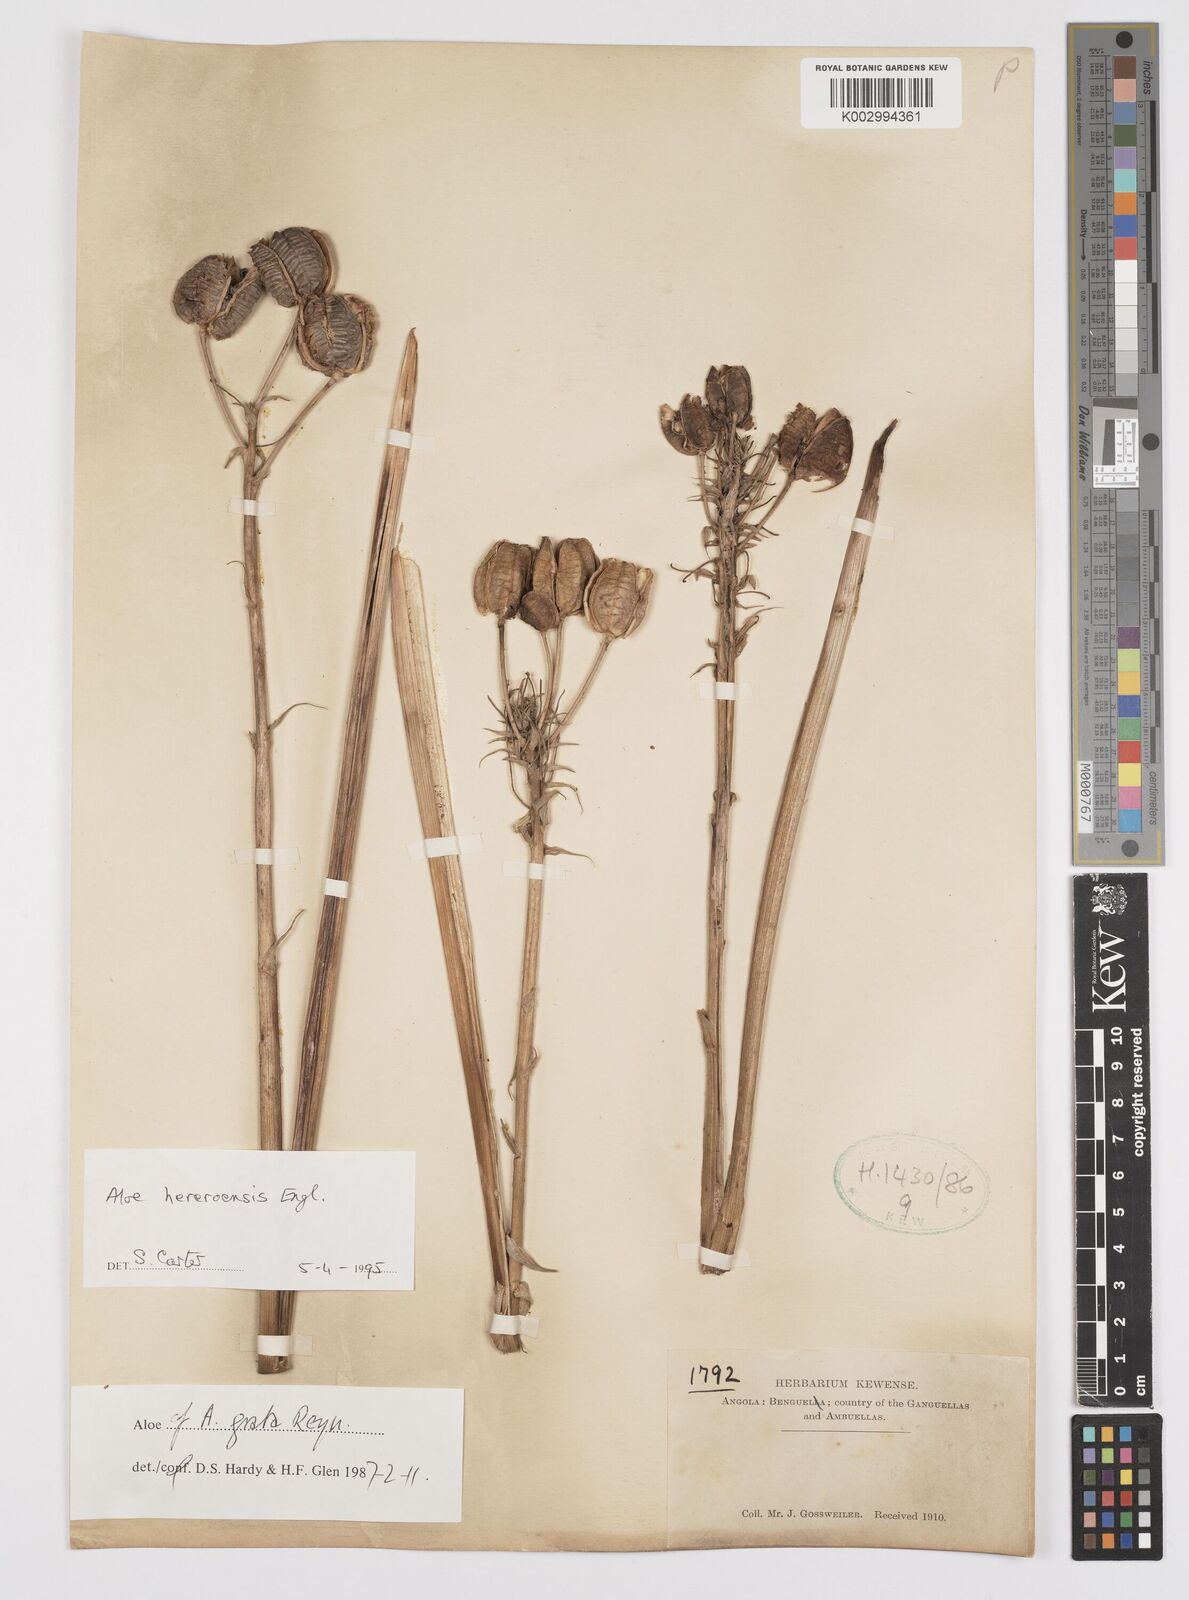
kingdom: Plantae
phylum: Tracheophyta
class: Liliopsida
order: Asparagales
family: Asphodelaceae
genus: Aloe
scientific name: Aloe hereroensis
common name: Herero aloe
